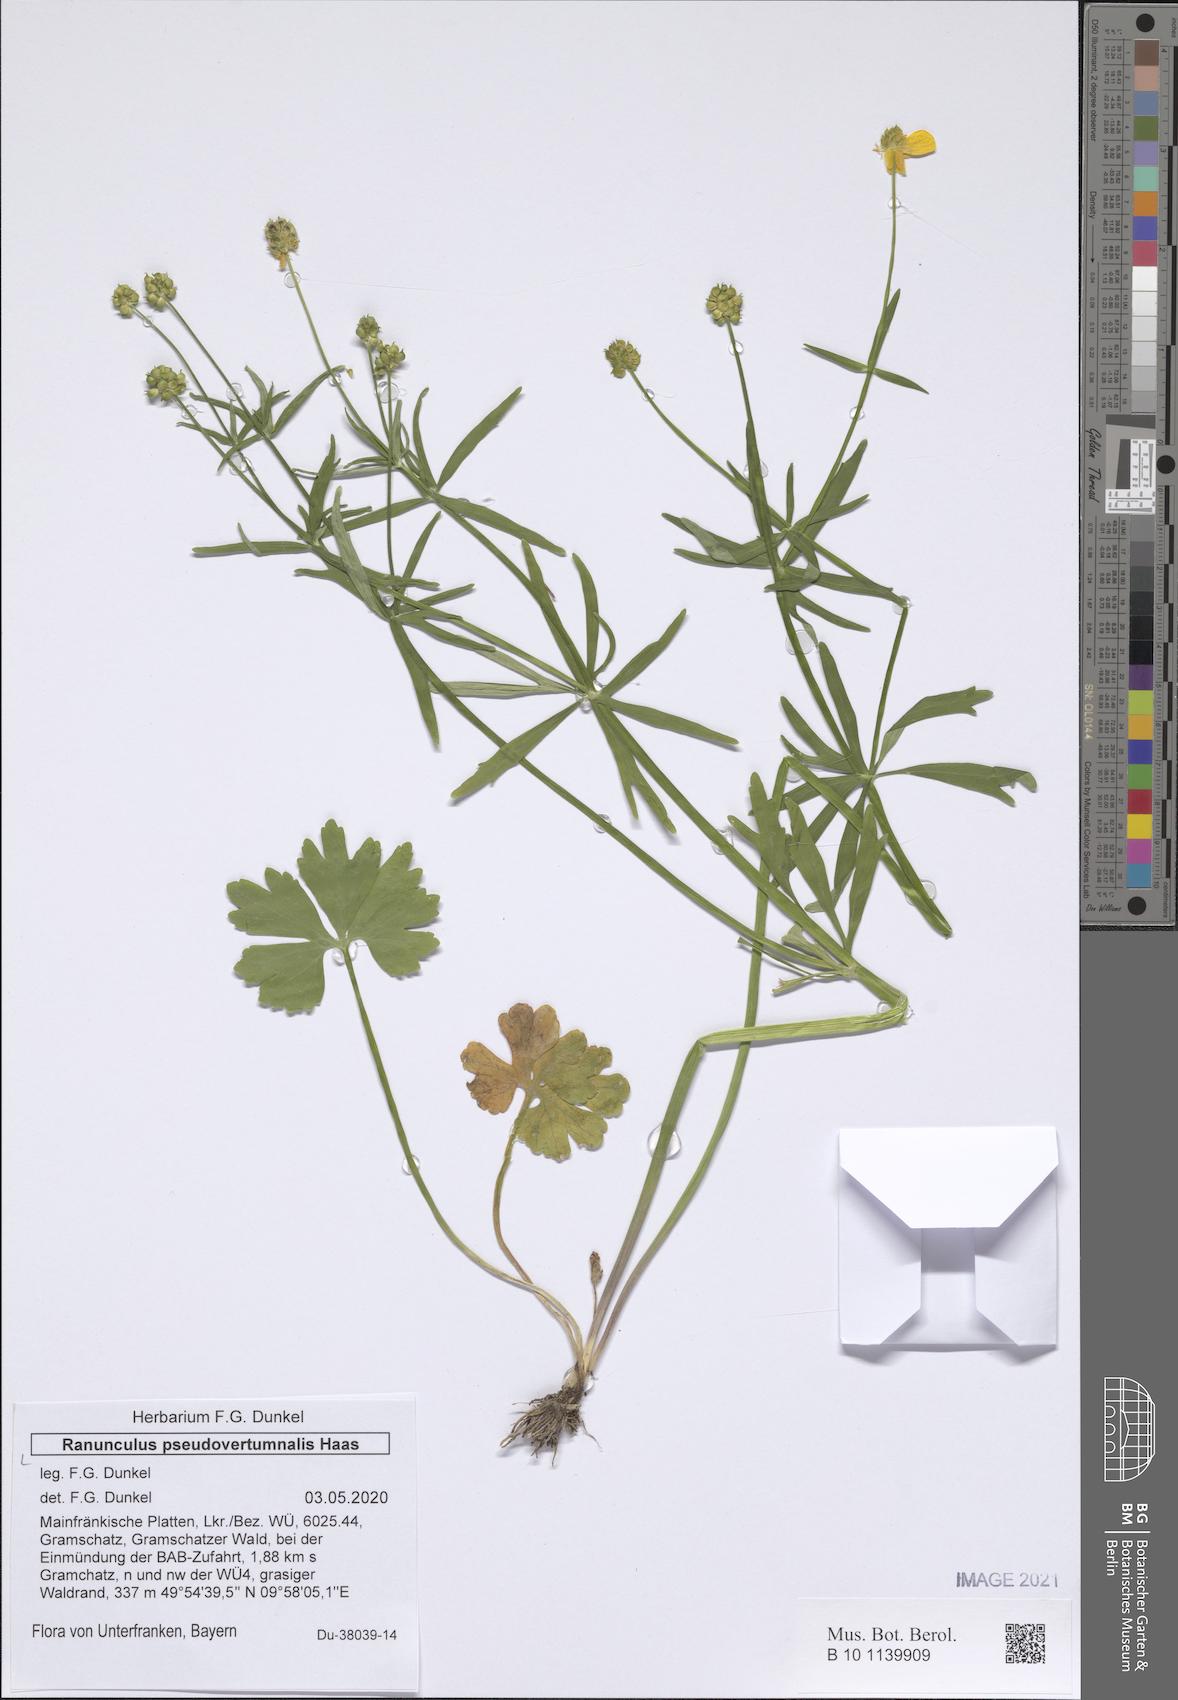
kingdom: Plantae
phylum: Tracheophyta
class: Magnoliopsida
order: Ranunculales
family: Ranunculaceae
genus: Ranunculus
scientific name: Ranunculus pseudovertumnalis
